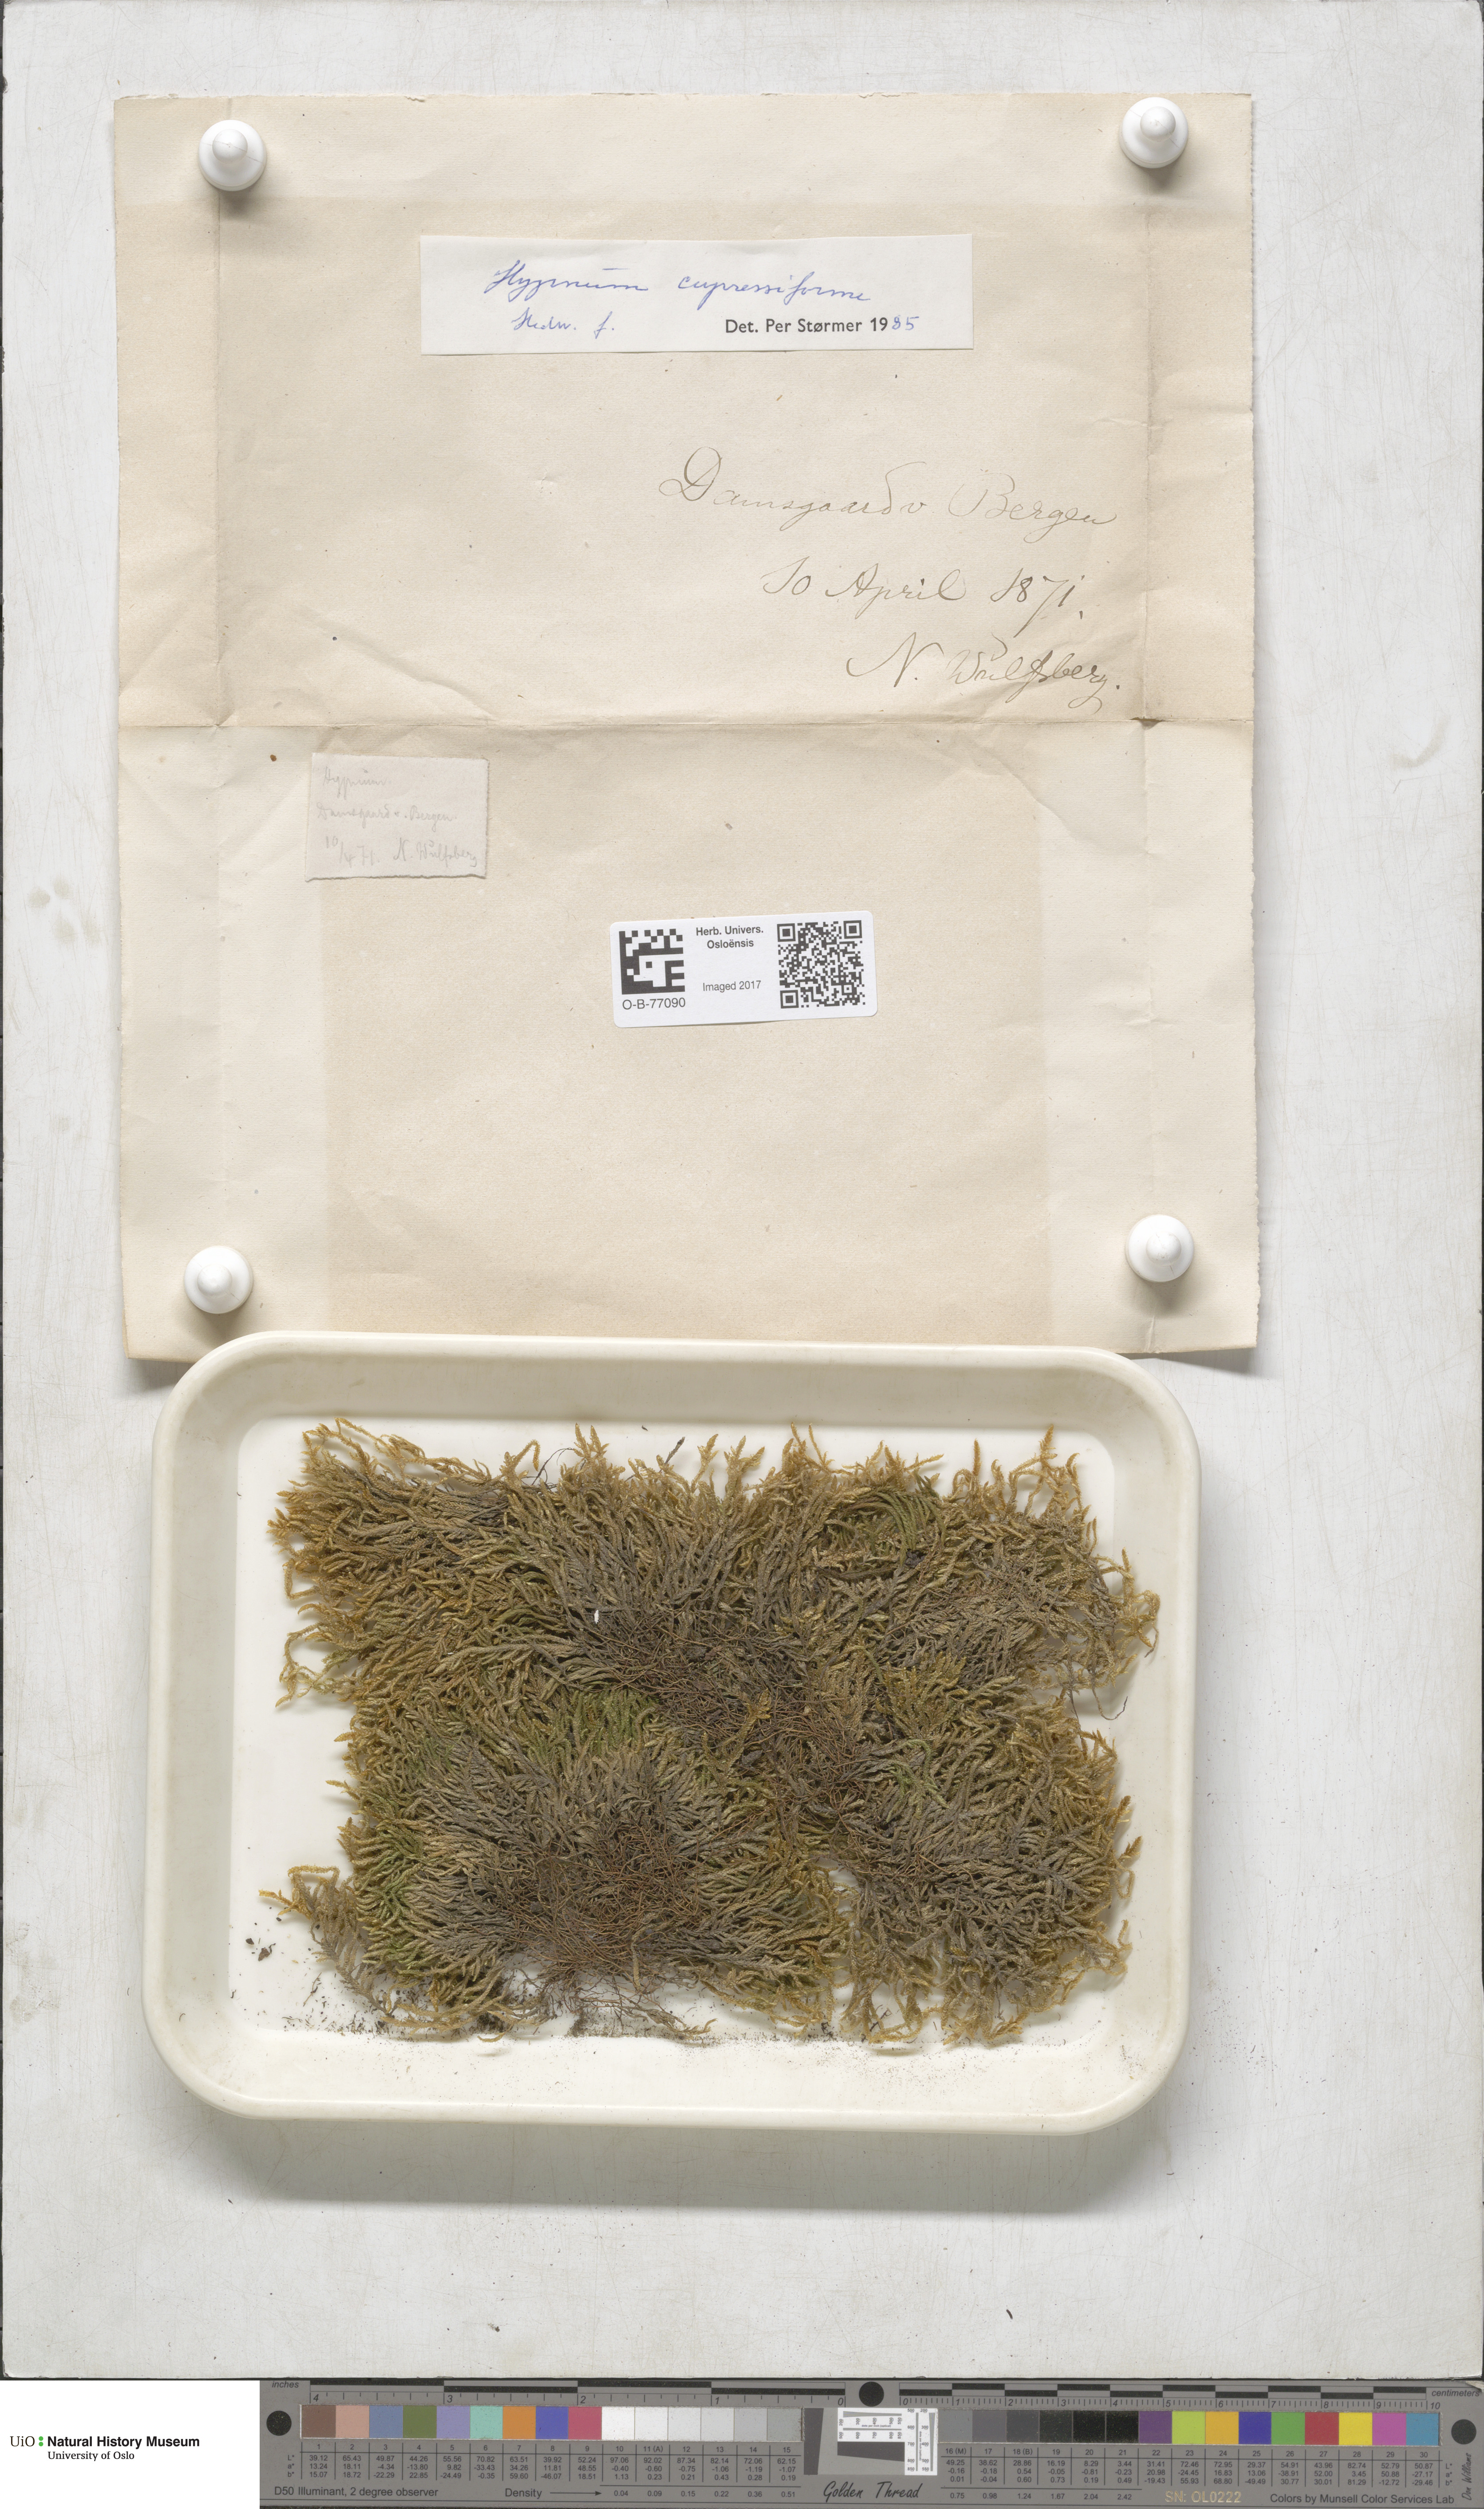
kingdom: Plantae
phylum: Bryophyta
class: Bryopsida
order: Hypnales
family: Hypnaceae
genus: Hypnum
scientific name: Hypnum cupressiforme
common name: Cypress-leaved plait-moss
